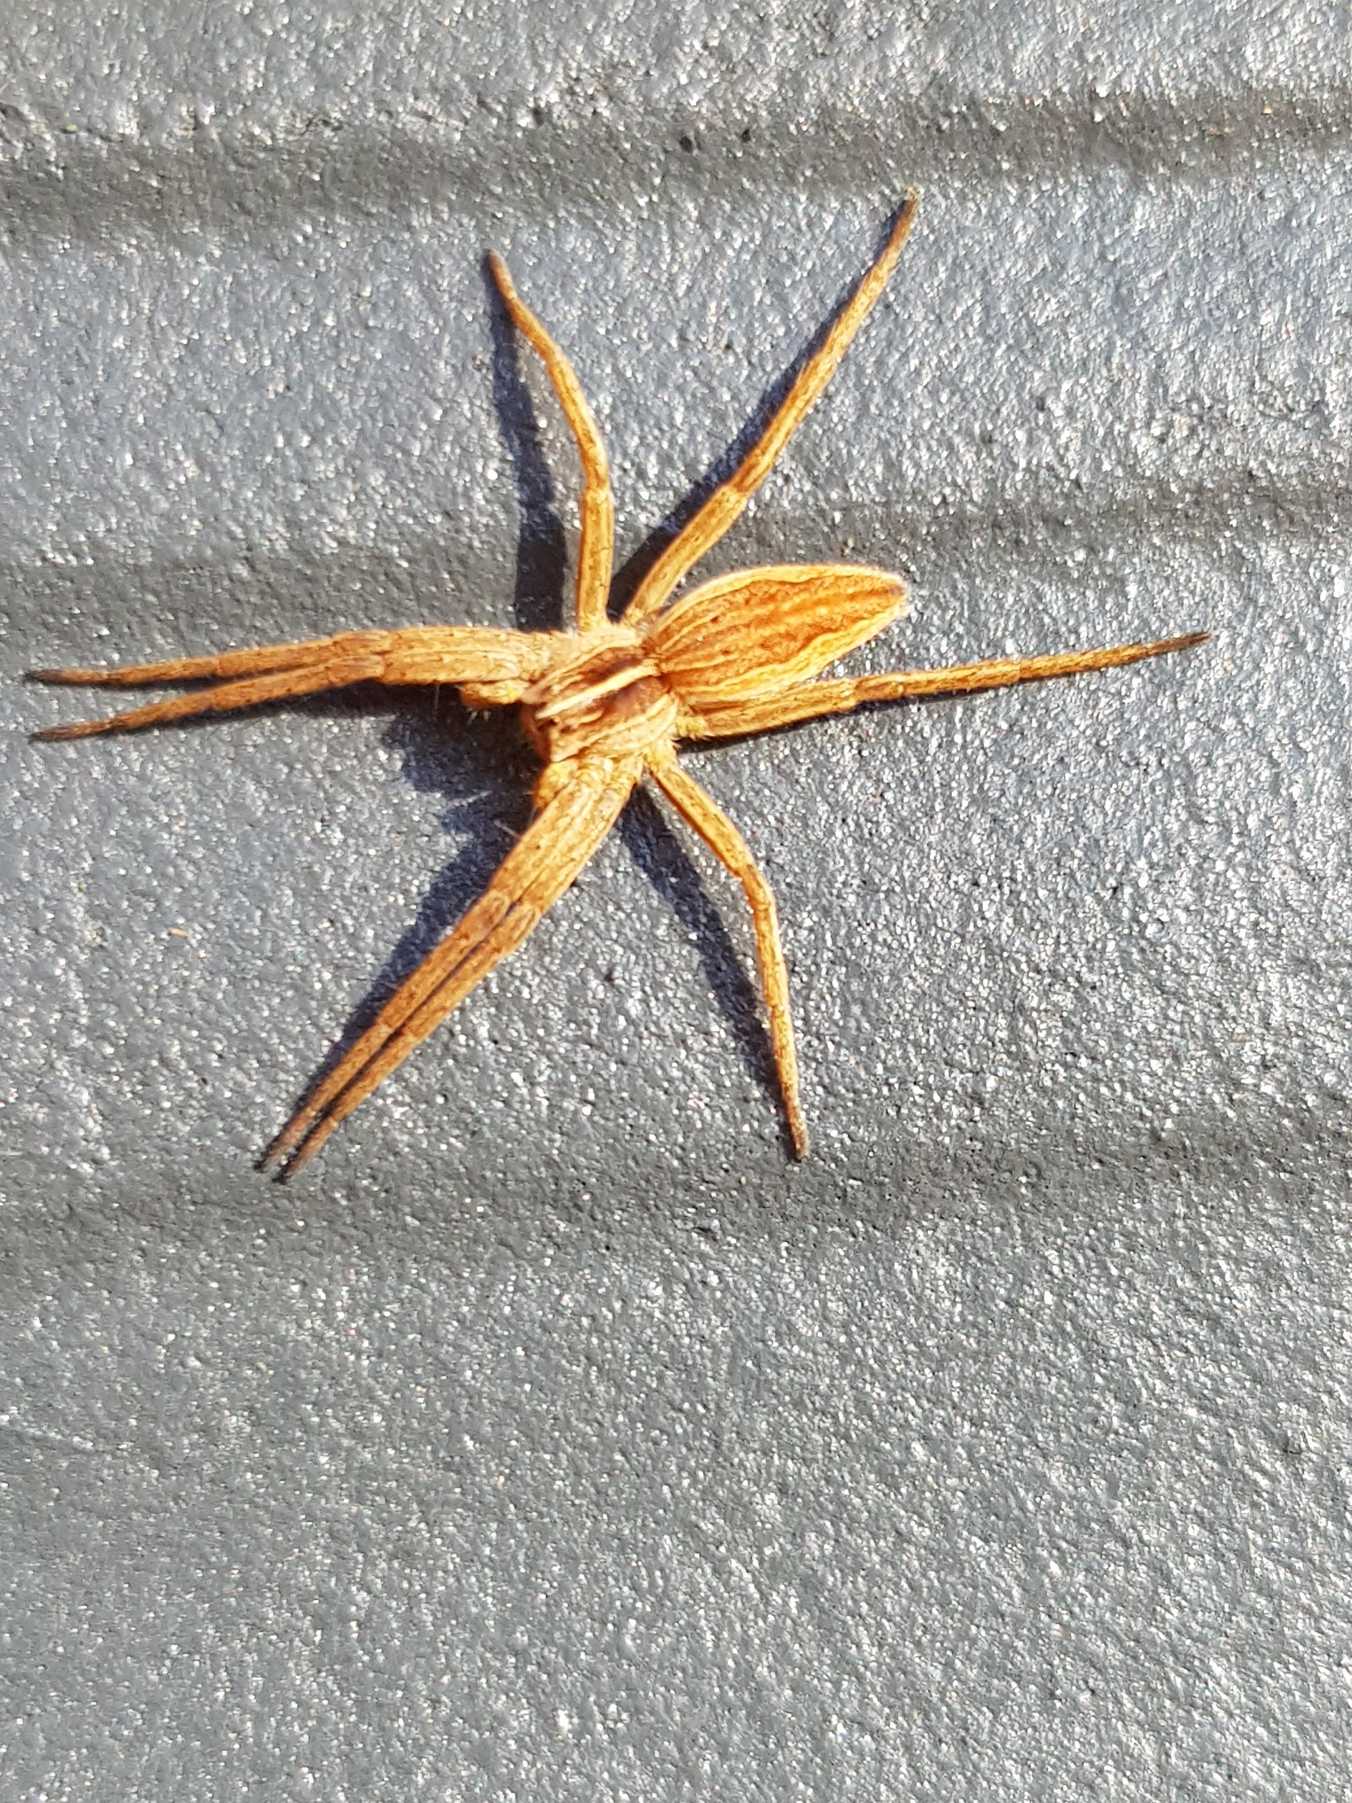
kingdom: Animalia
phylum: Arthropoda
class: Arachnida
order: Araneae
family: Pisauridae
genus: Pisaura
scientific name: Pisaura mirabilis
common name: Almindelig rovedderkop
